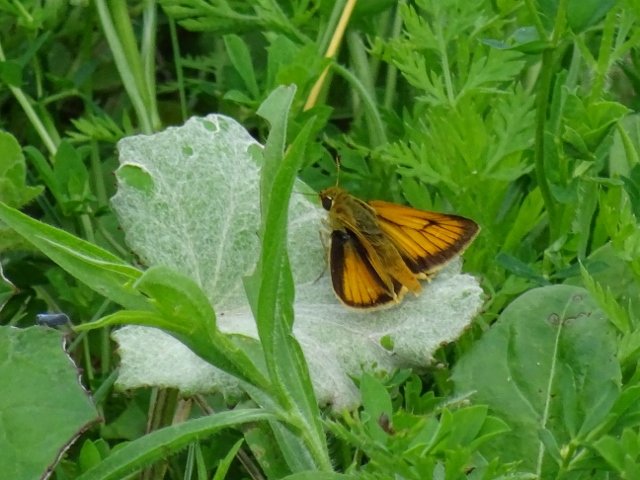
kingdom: Animalia
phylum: Arthropoda
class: Insecta
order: Lepidoptera
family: Hesperiidae
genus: Atrytone
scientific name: Atrytone delaware
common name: Delaware Skipper
